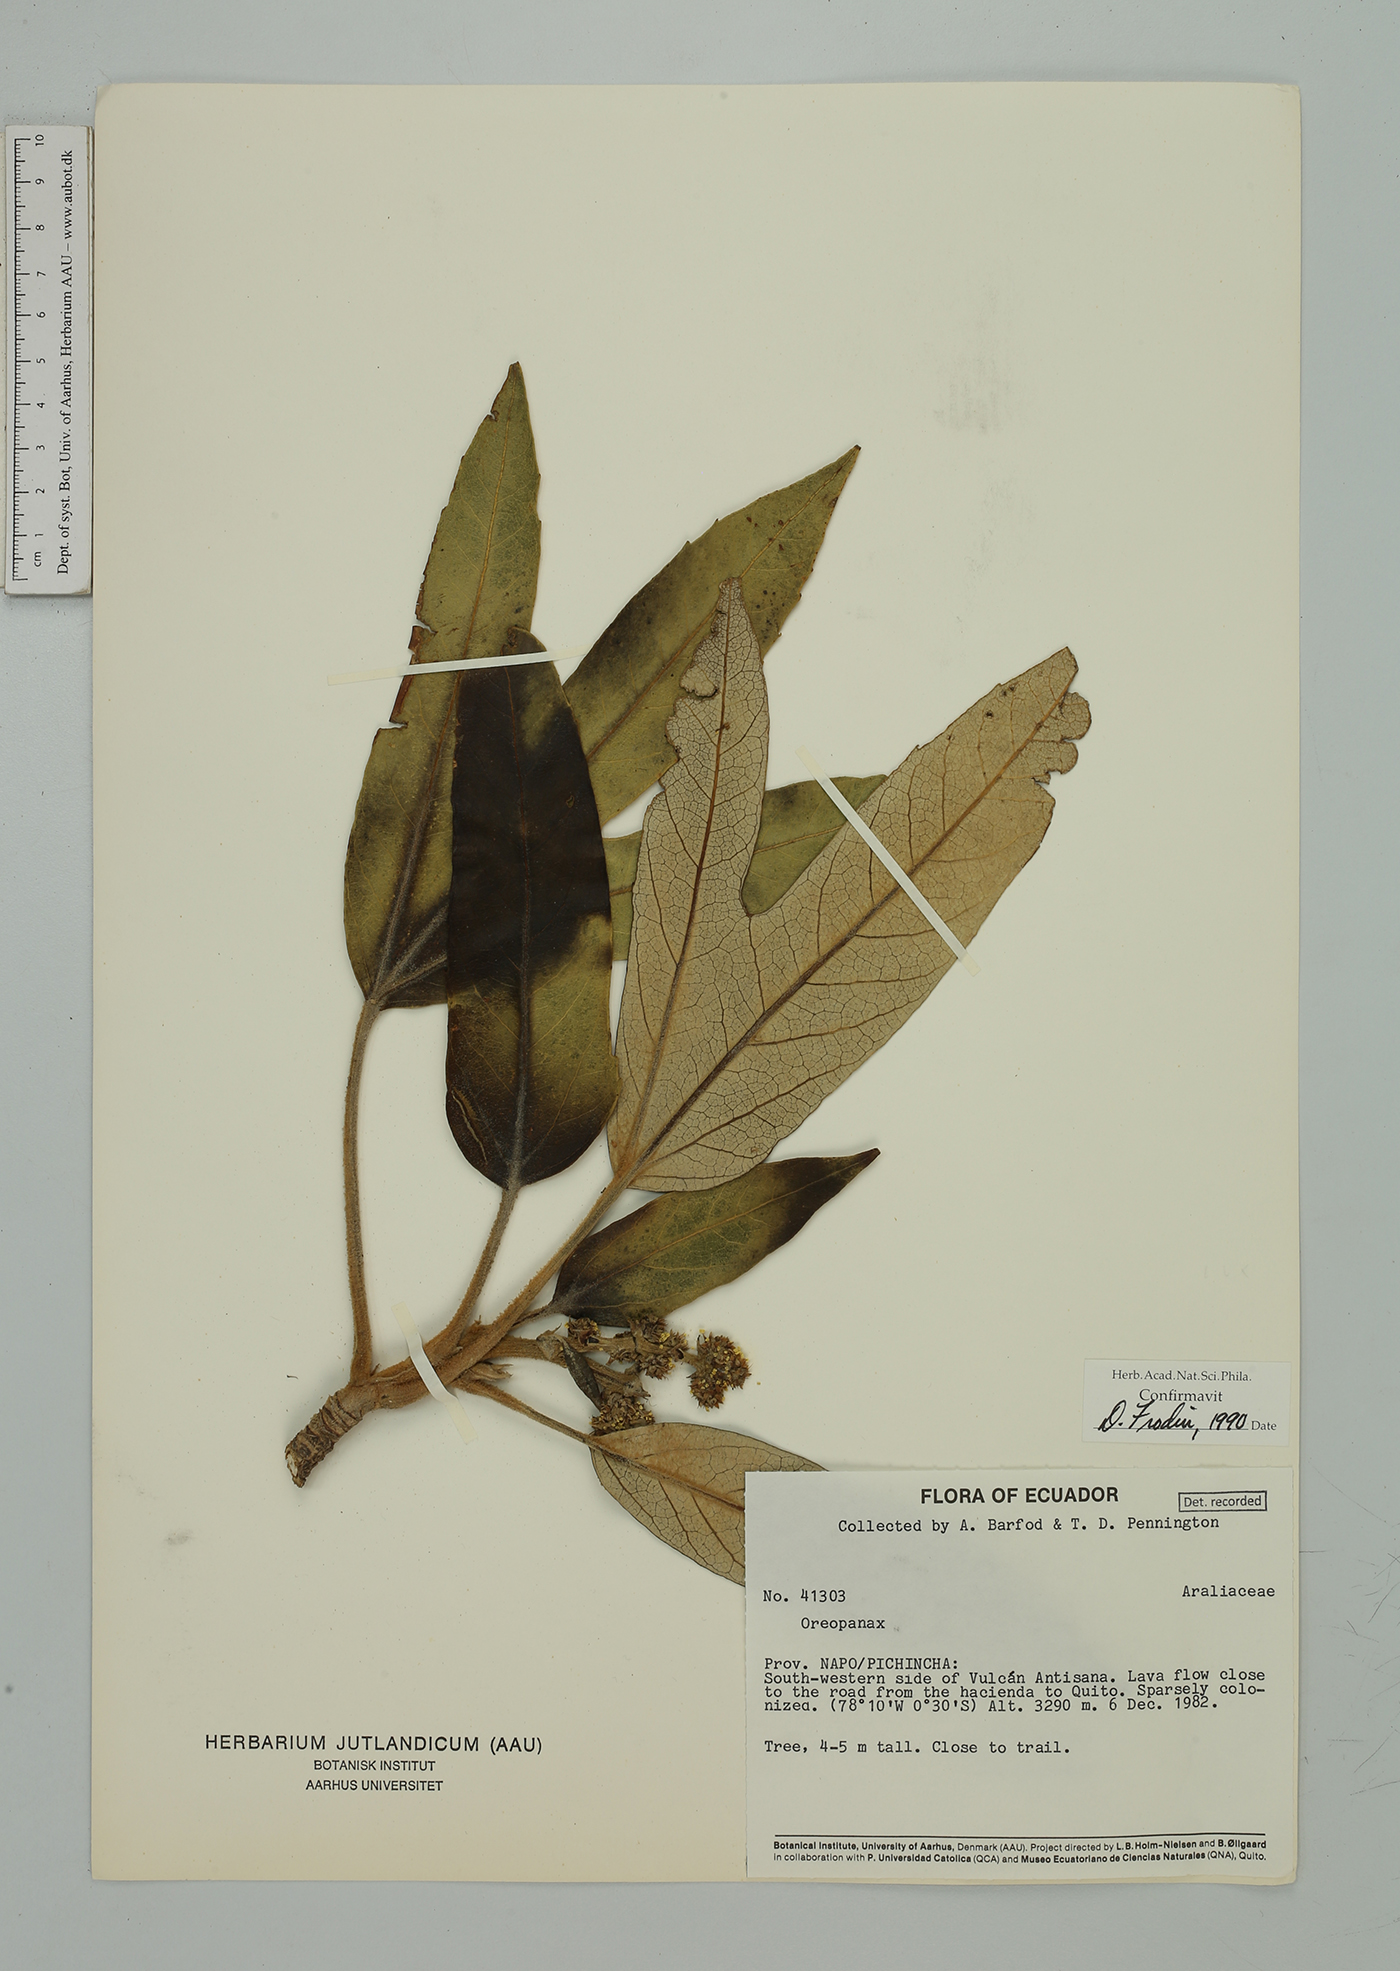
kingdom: Plantae
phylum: Tracheophyta
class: Magnoliopsida
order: Apiales
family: Araliaceae
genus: Oreopanax
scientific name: Oreopanax ecuadoriensis
